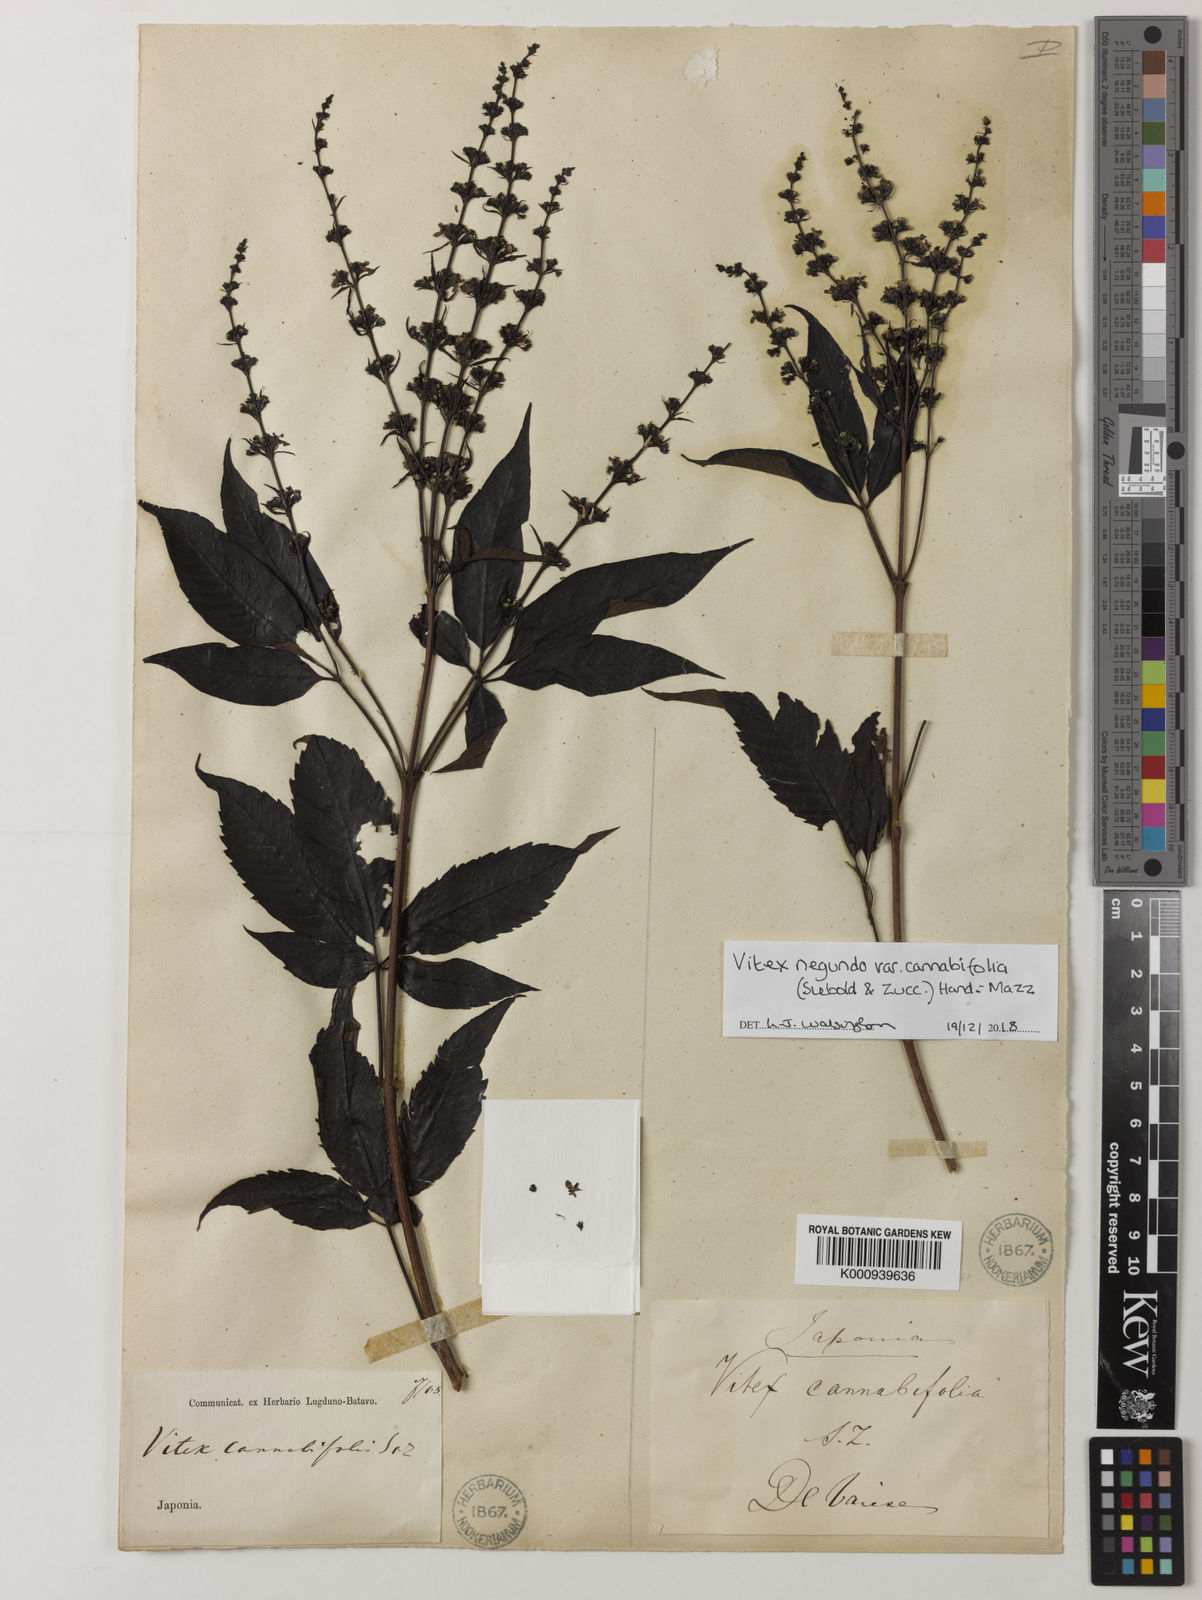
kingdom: Plantae
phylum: Tracheophyta
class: Magnoliopsida
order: Lamiales
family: Lamiaceae
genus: Vitex
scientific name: Vitex negundo
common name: Chinese chastetree
